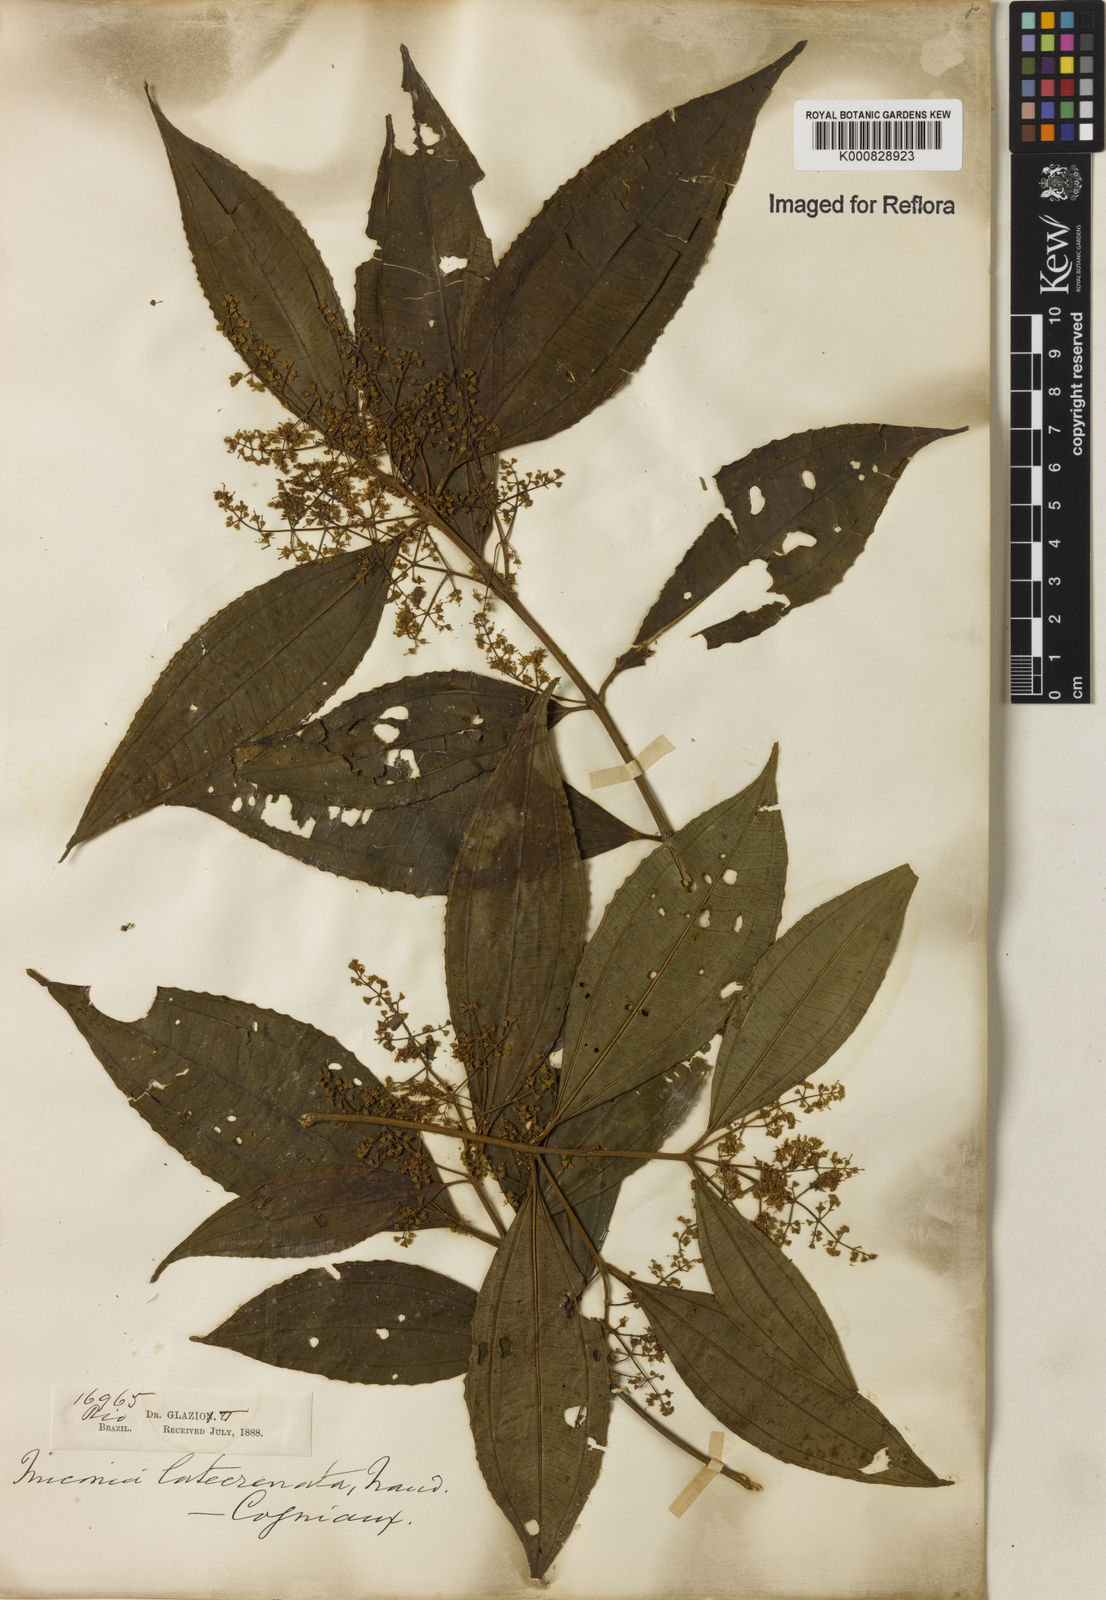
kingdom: Plantae
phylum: Tracheophyta
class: Magnoliopsida
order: Myrtales
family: Melastomataceae
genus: Miconia
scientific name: Miconia latecrenata
